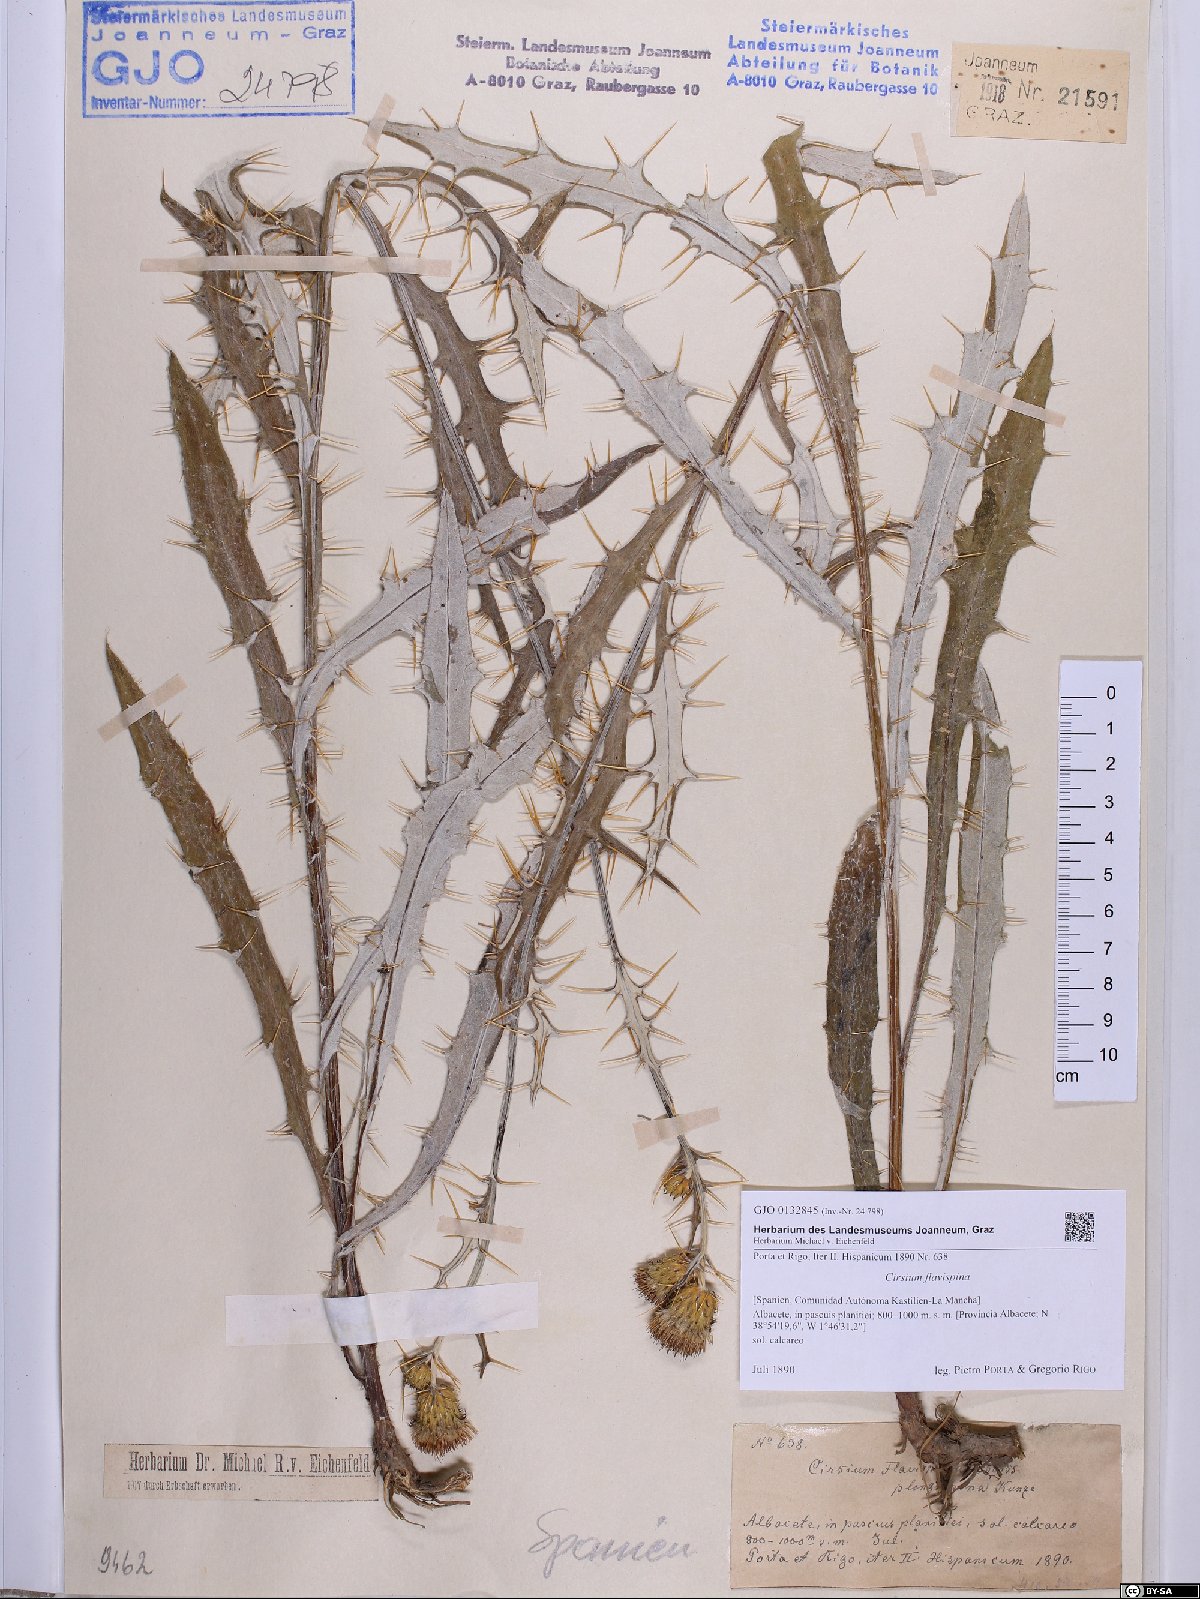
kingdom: Plantae
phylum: Tracheophyta
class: Magnoliopsida
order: Asterales
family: Asteraceae
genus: Cirsium
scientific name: Cirsium pyrenaicum
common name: Pyrenean thistle
